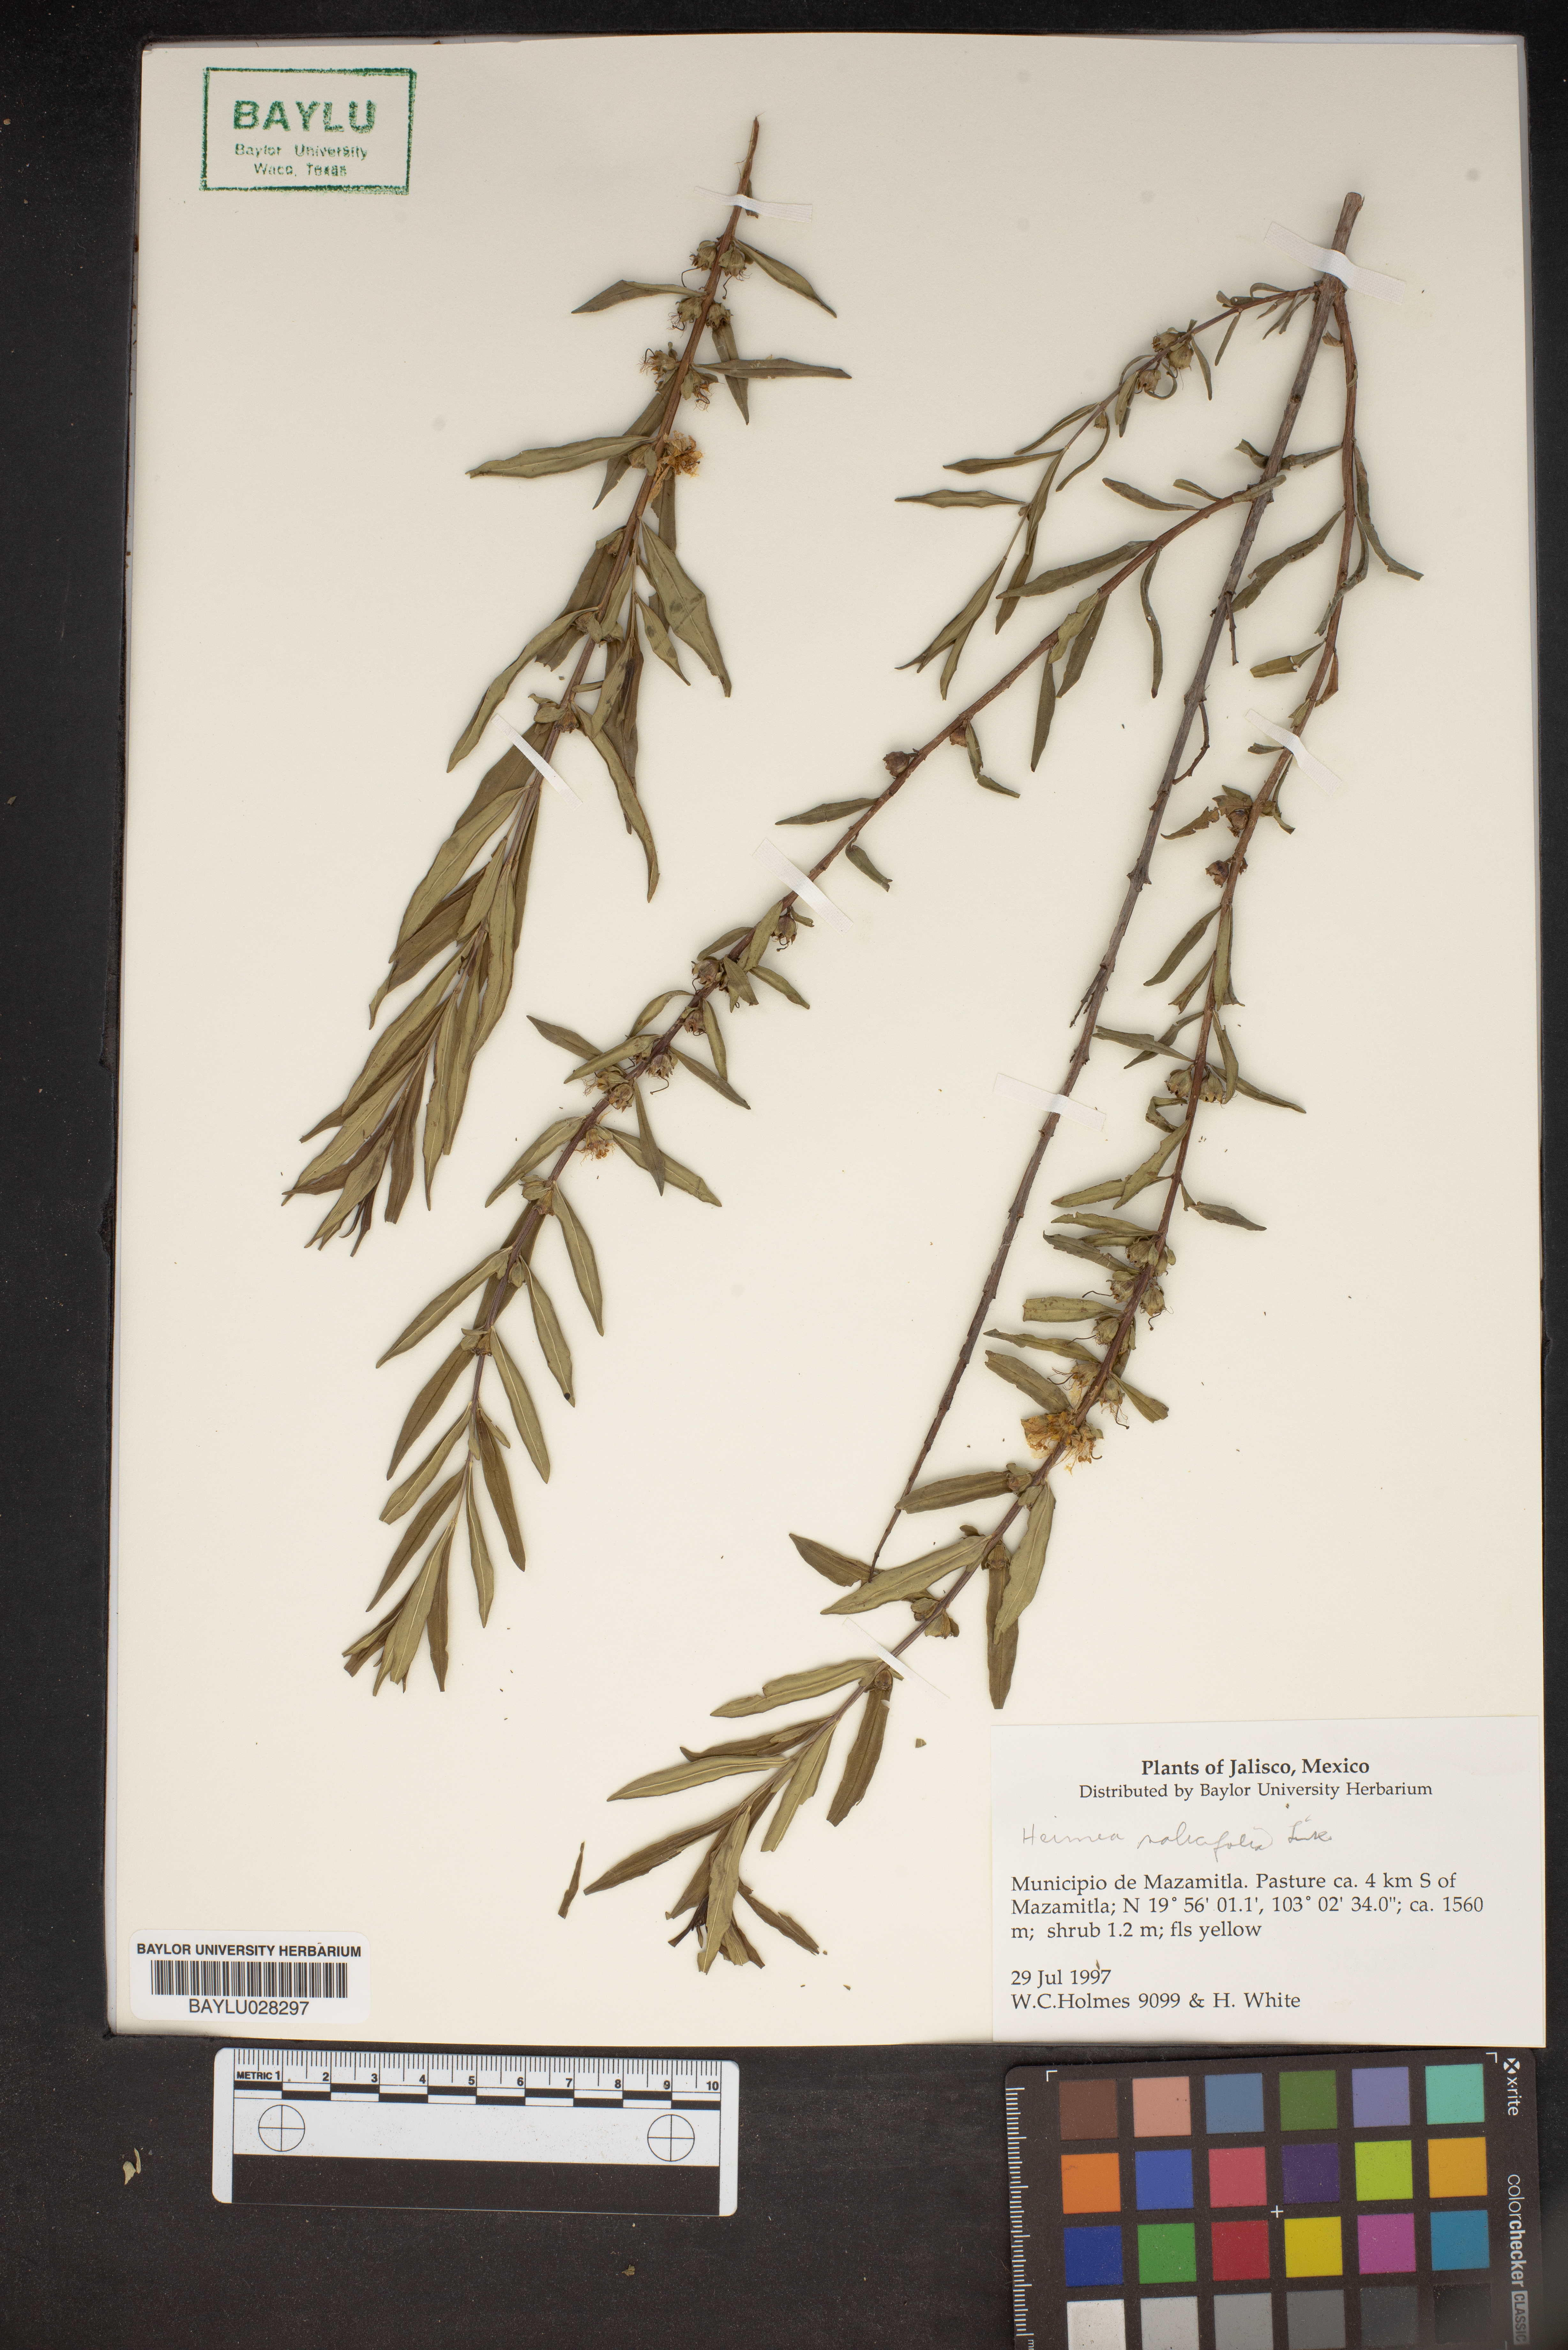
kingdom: Plantae
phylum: Tracheophyta
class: Magnoliopsida
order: Myrtales
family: Lythraceae
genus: Heimia
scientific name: Heimia salicifolia
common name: Willow-leaf heimia
